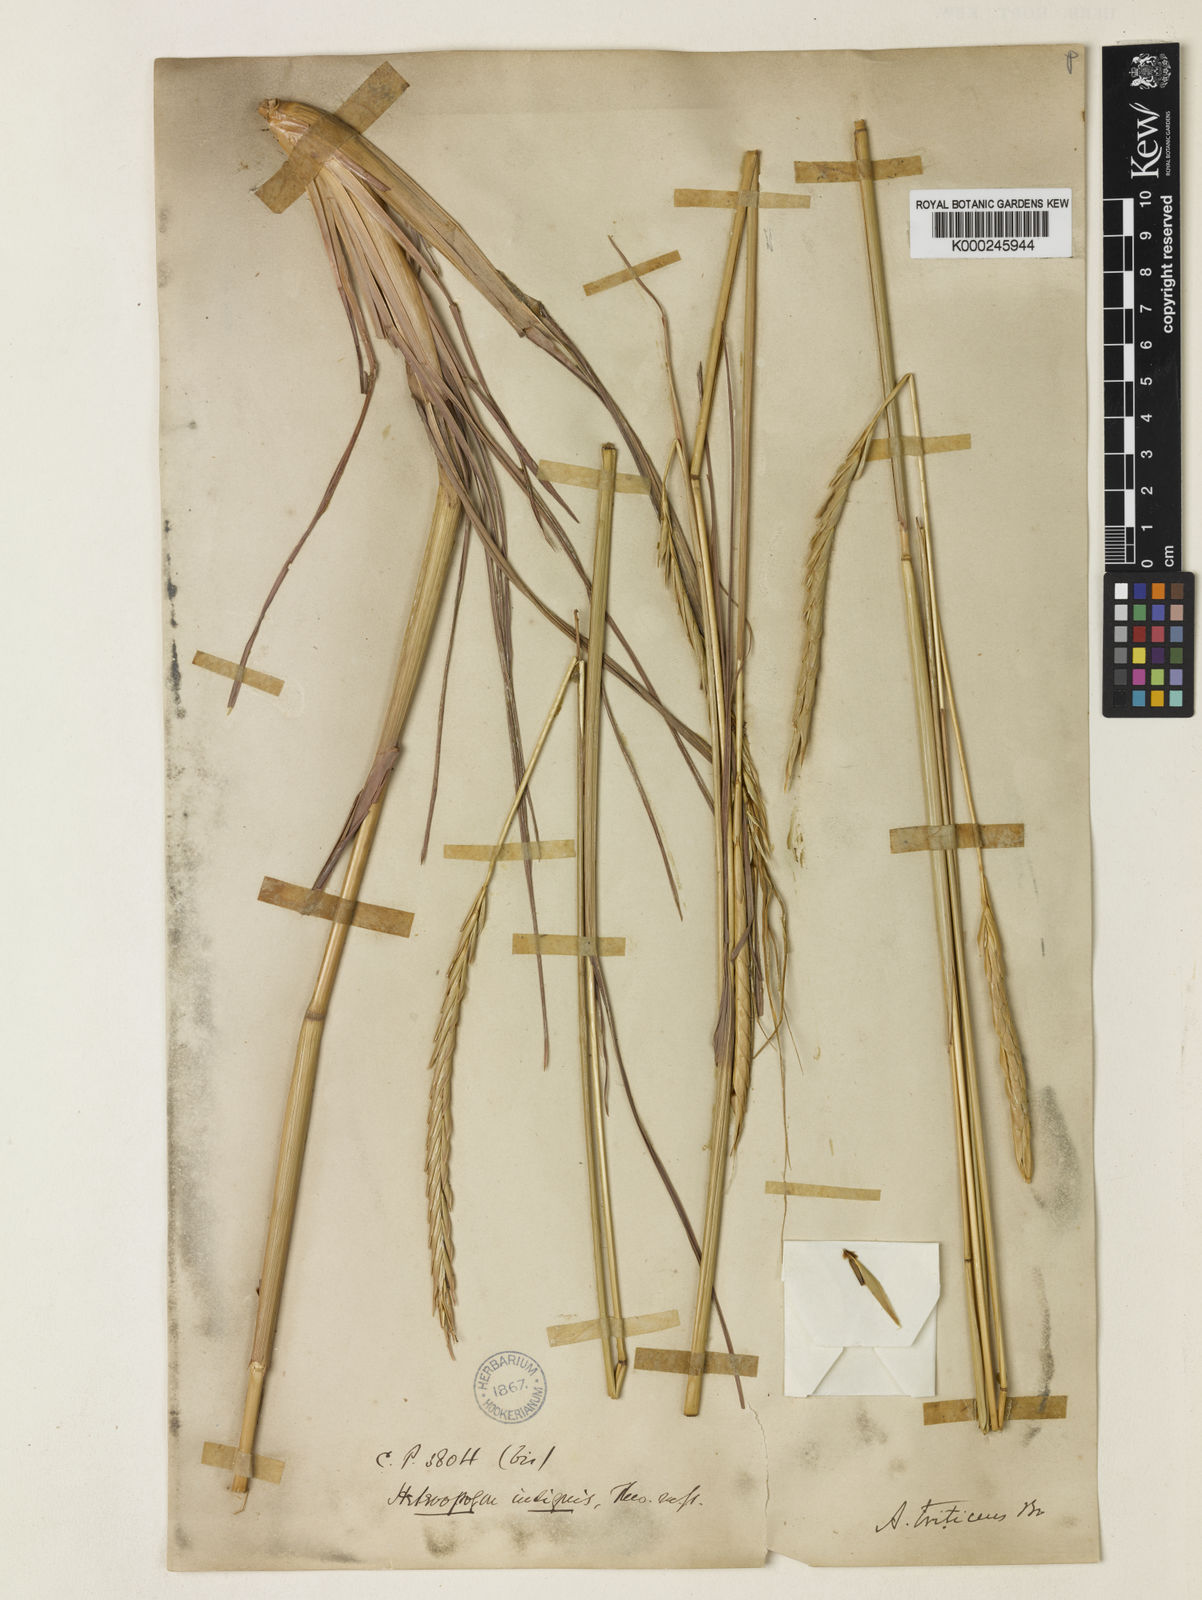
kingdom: Plantae
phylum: Tracheophyta
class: Liliopsida
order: Poales
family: Poaceae
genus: Heteropogon
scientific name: Heteropogon triticeus
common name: Sugar grass
